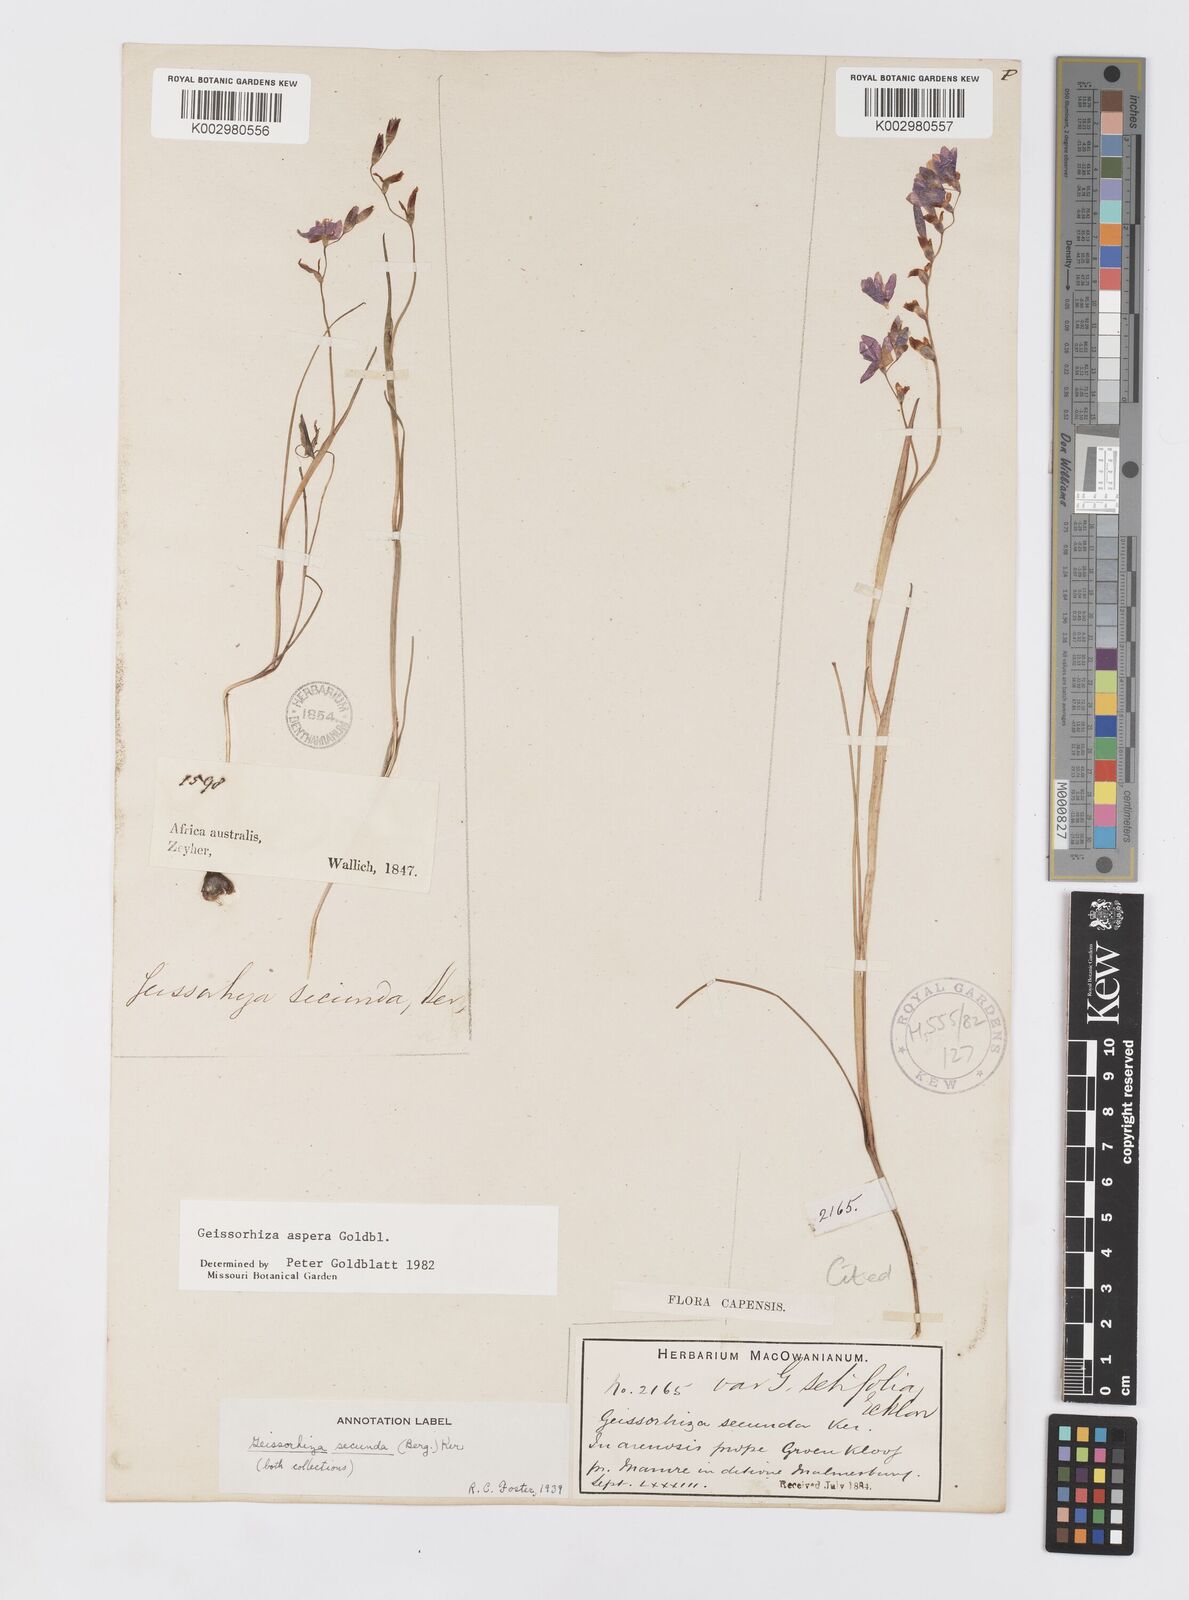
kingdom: Plantae
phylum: Tracheophyta
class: Liliopsida
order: Asparagales
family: Iridaceae
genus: Geissorhiza
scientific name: Geissorhiza aspera
